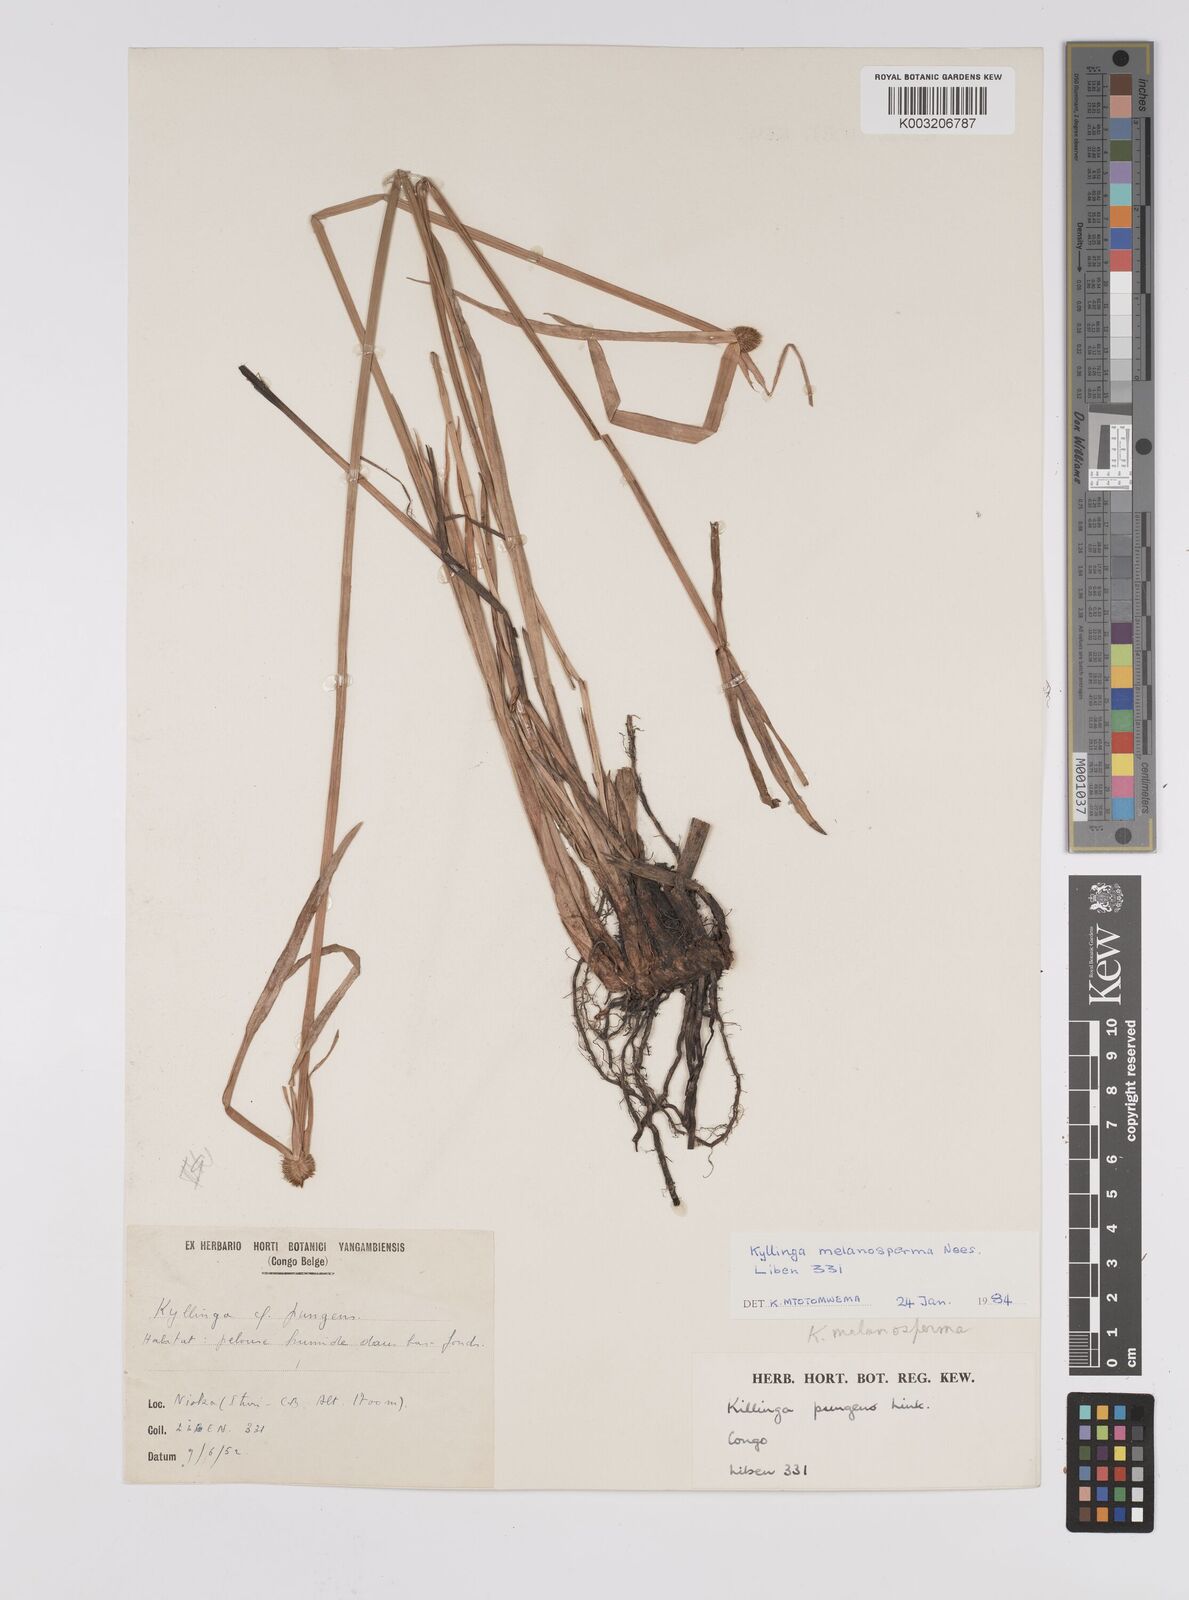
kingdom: Plantae
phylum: Tracheophyta
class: Liliopsida
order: Poales
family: Cyperaceae
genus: Cyperus
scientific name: Cyperus melanospermus
